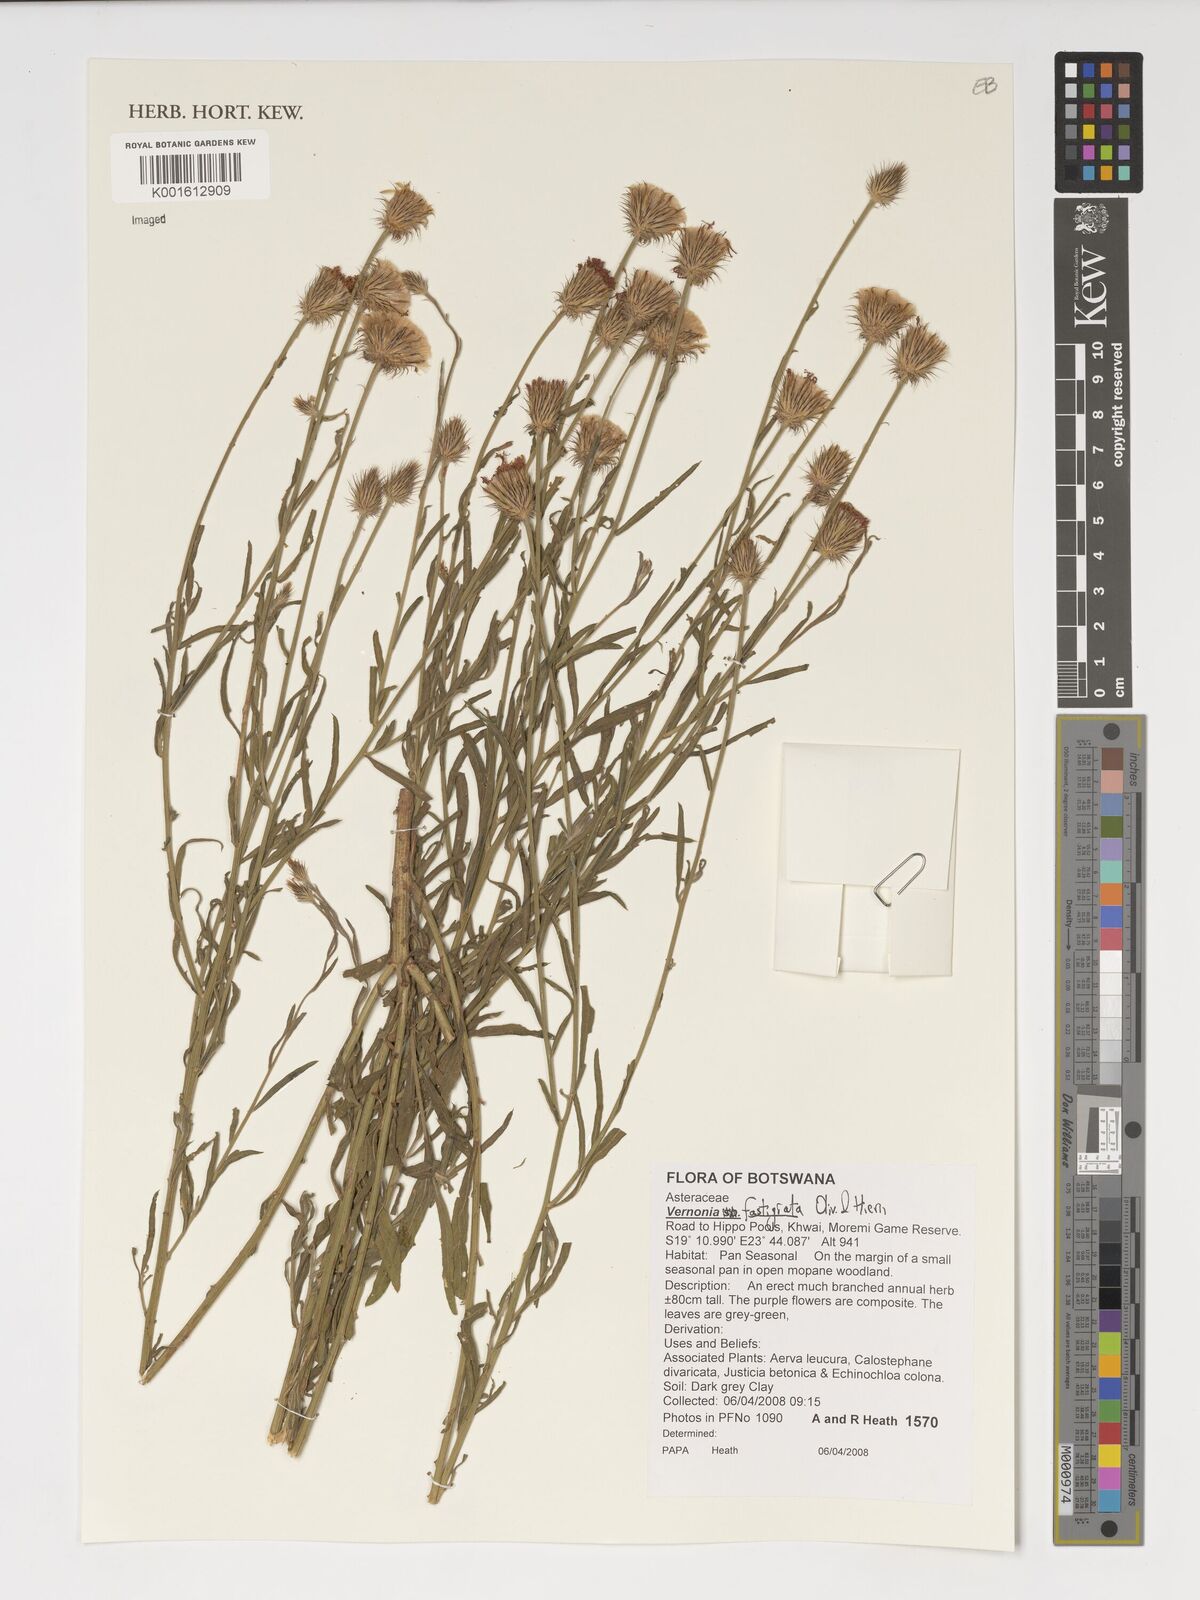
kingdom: Plantae
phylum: Tracheophyta
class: Magnoliopsida
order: Asterales
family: Asteraceae
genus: Parapolydora
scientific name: Parapolydora fastigiata
